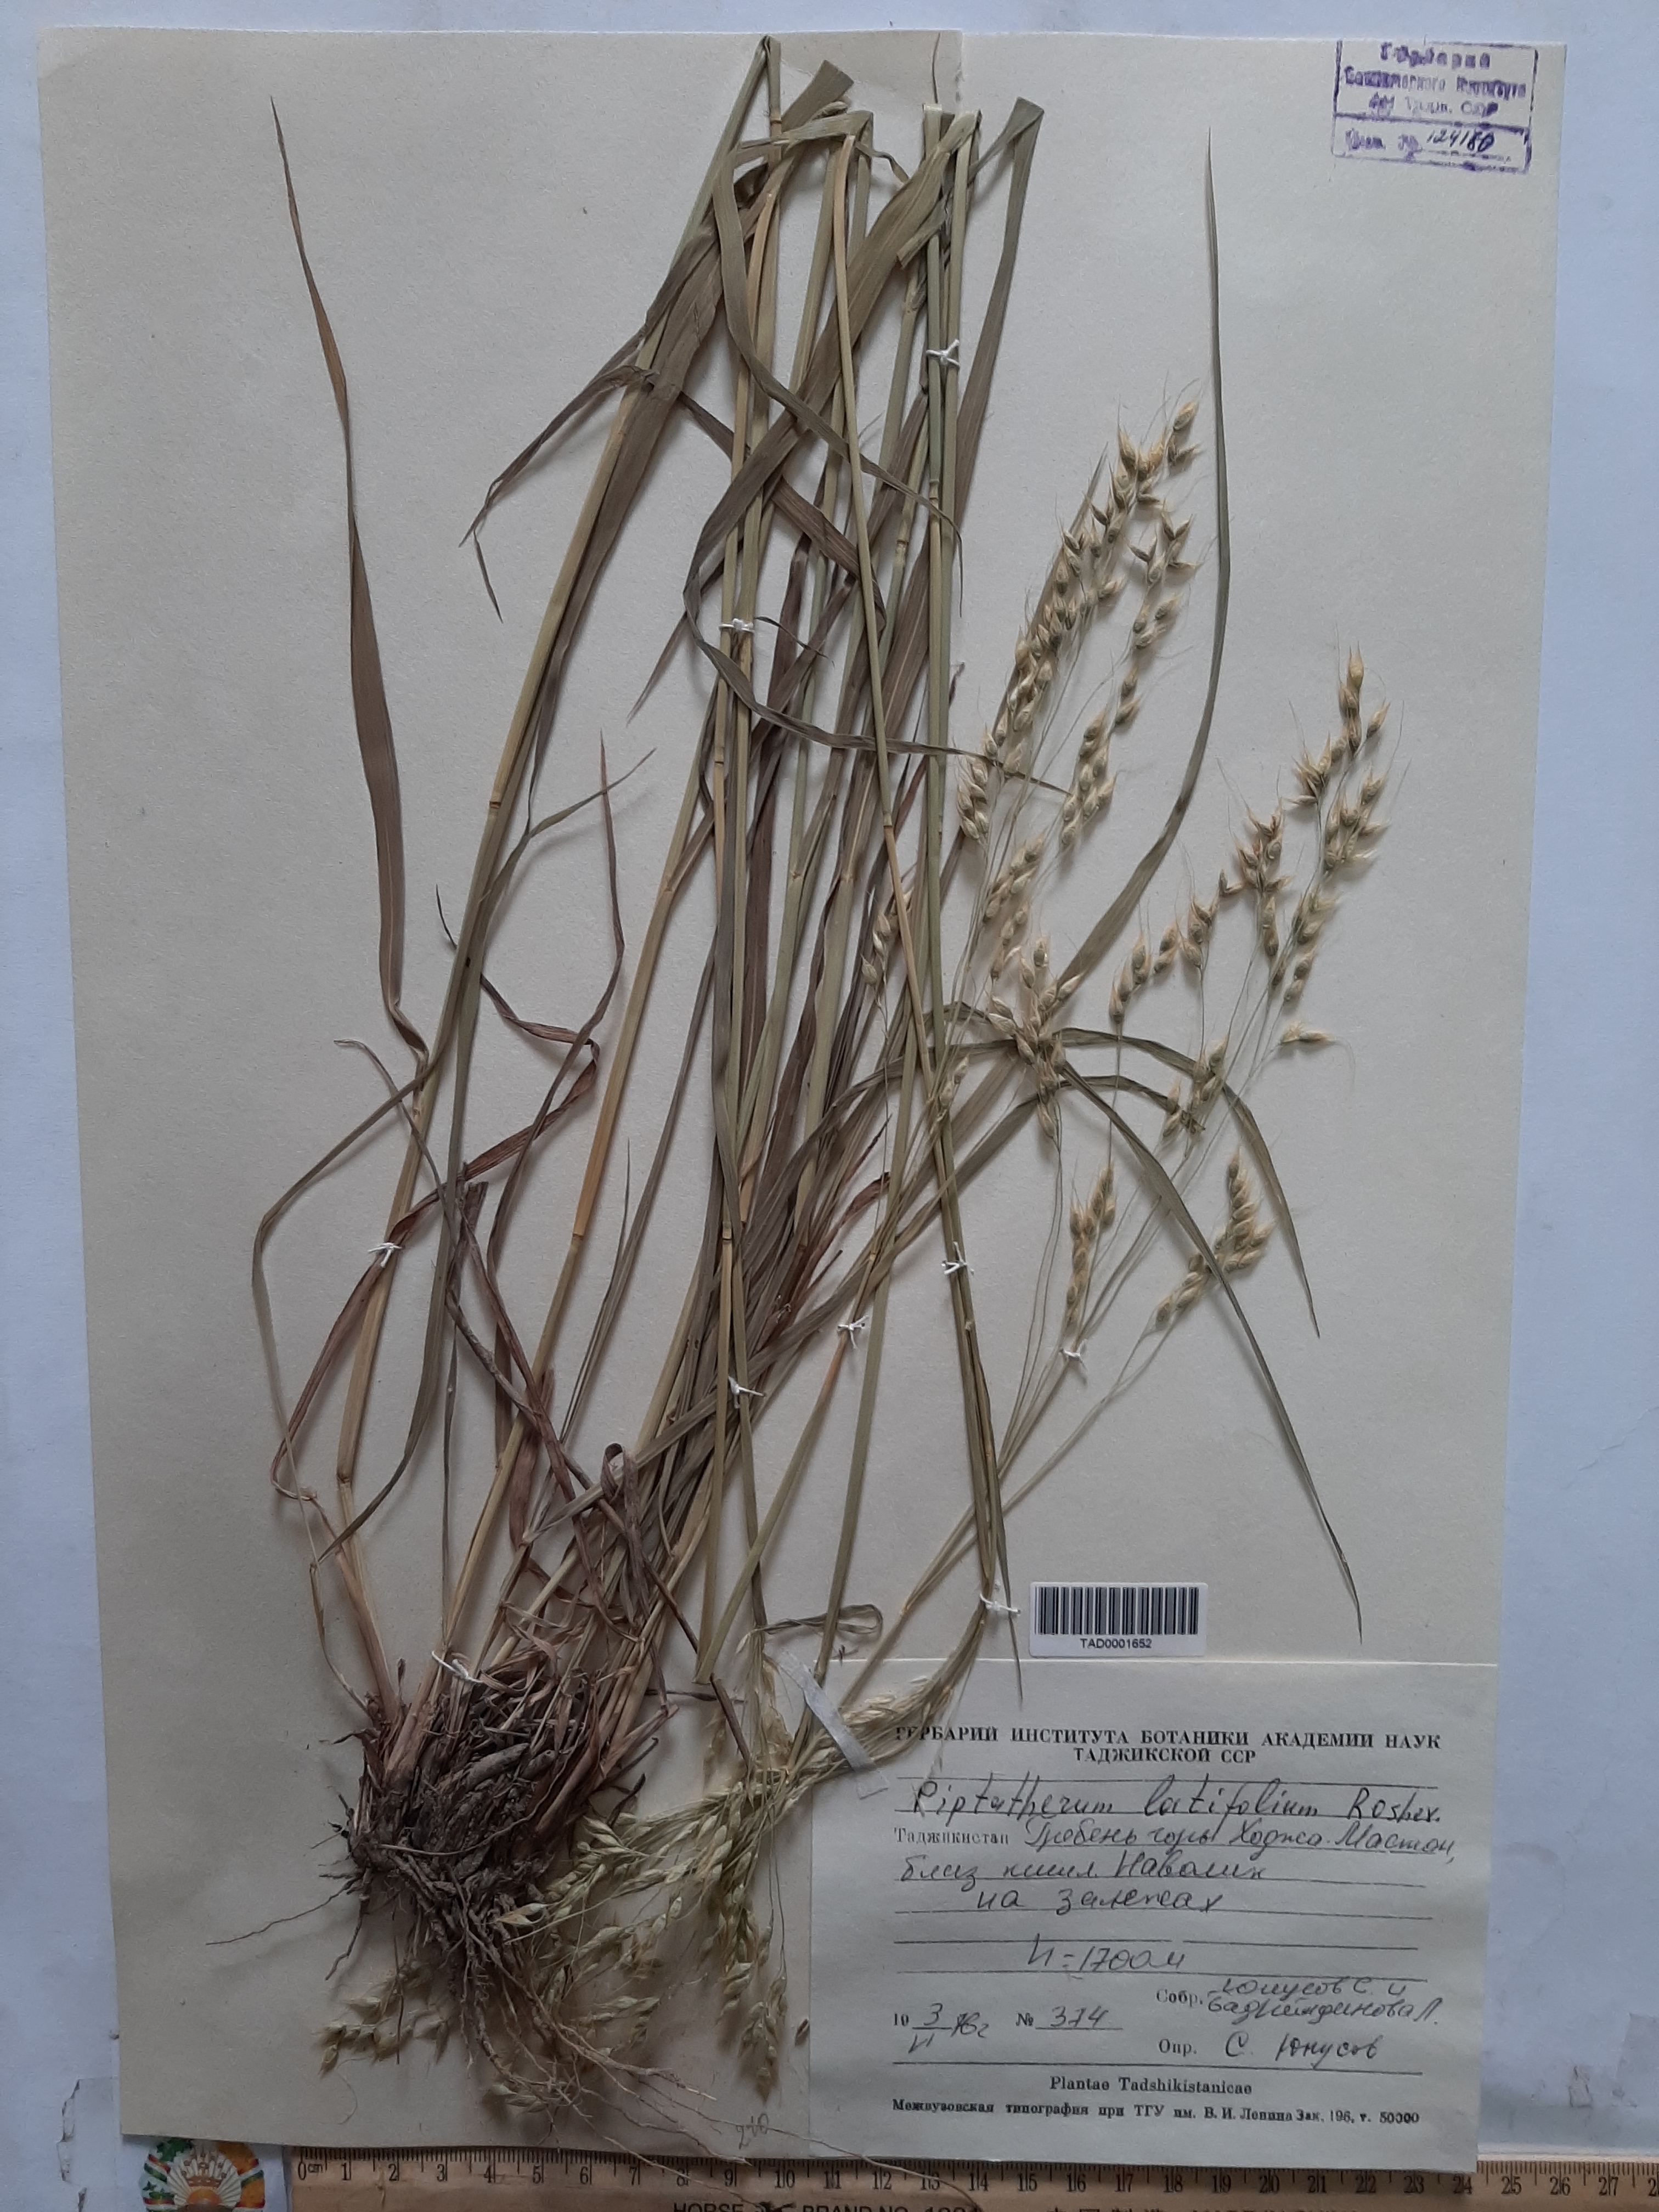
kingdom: Plantae
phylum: Tracheophyta
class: Liliopsida
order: Poales
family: Poaceae
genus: Piptatherum
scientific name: Piptatherum latifolium
